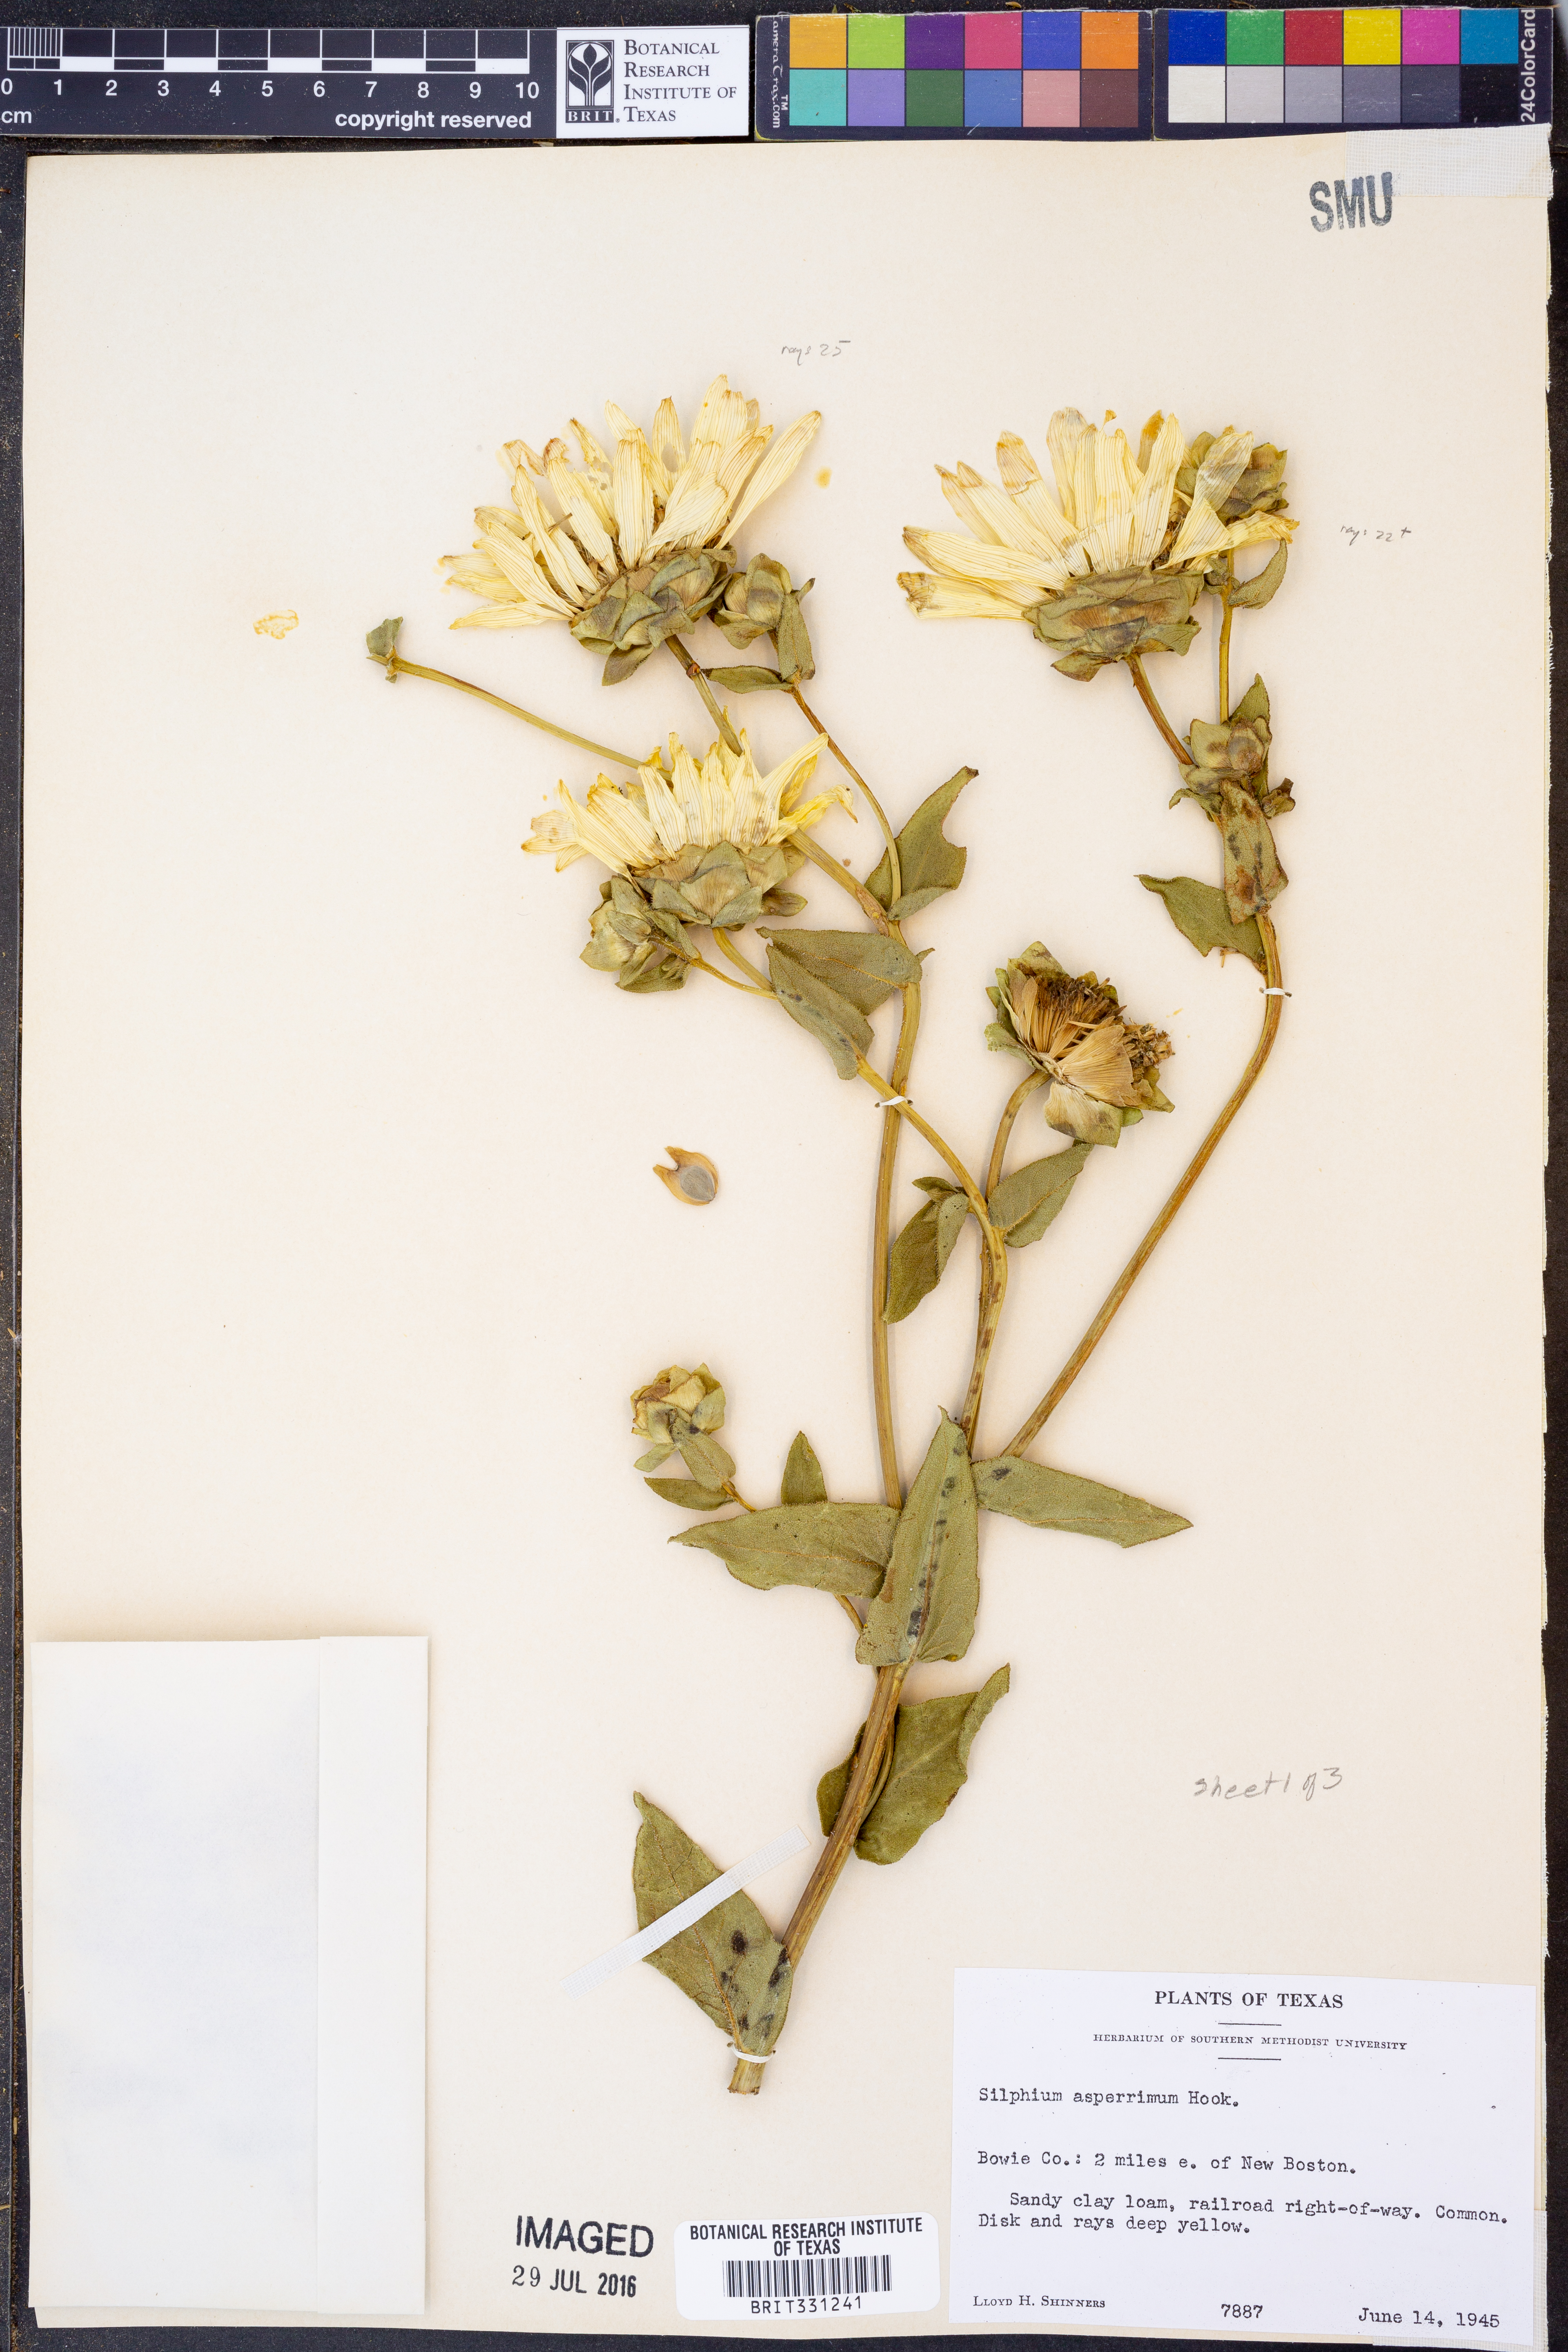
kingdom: Plantae
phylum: Tracheophyta
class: Magnoliopsida
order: Asterales
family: Asteraceae
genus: Silphium
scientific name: Silphium asperrimum
